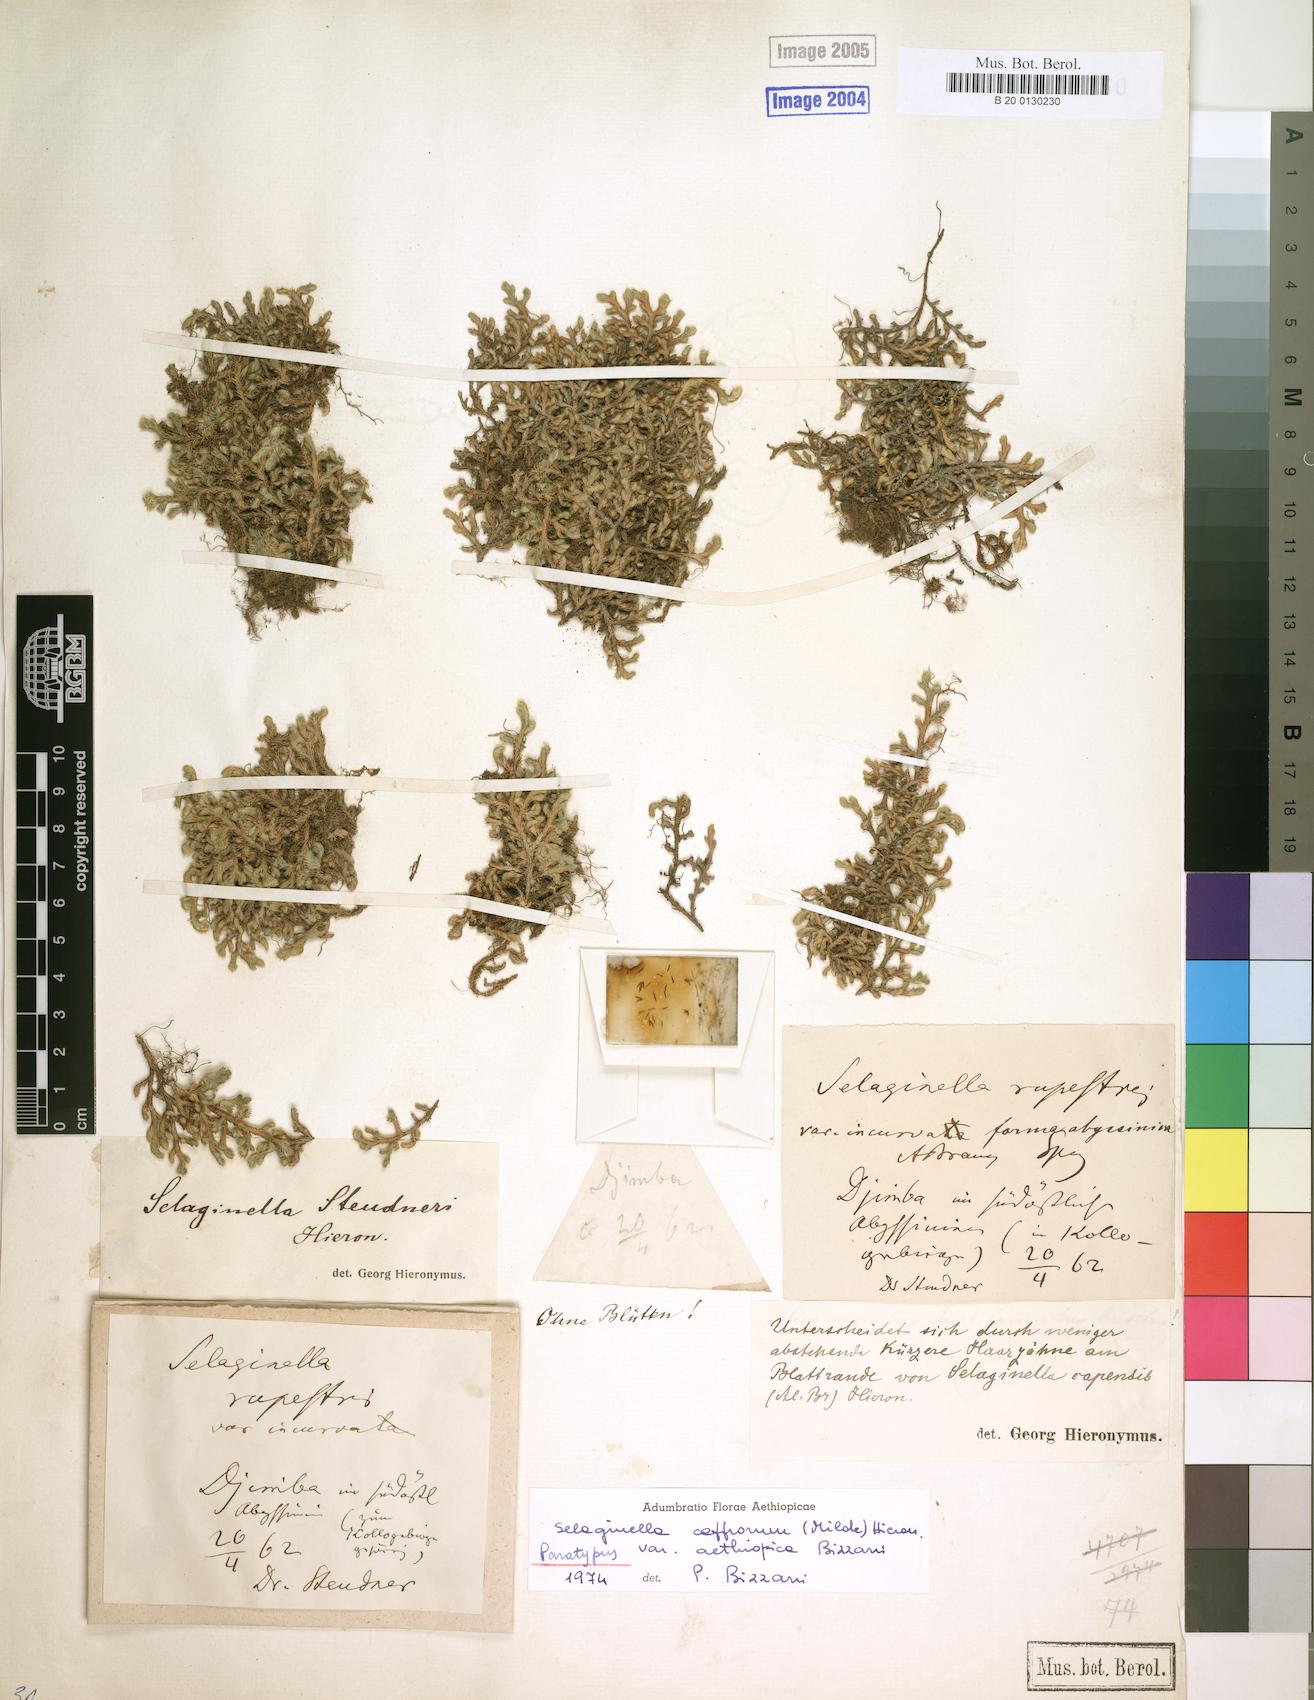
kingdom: Plantae
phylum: Tracheophyta
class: Lycopodiopsida
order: Selaginellales
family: Selaginellaceae
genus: Selaginella
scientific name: Selaginella caffrorum
